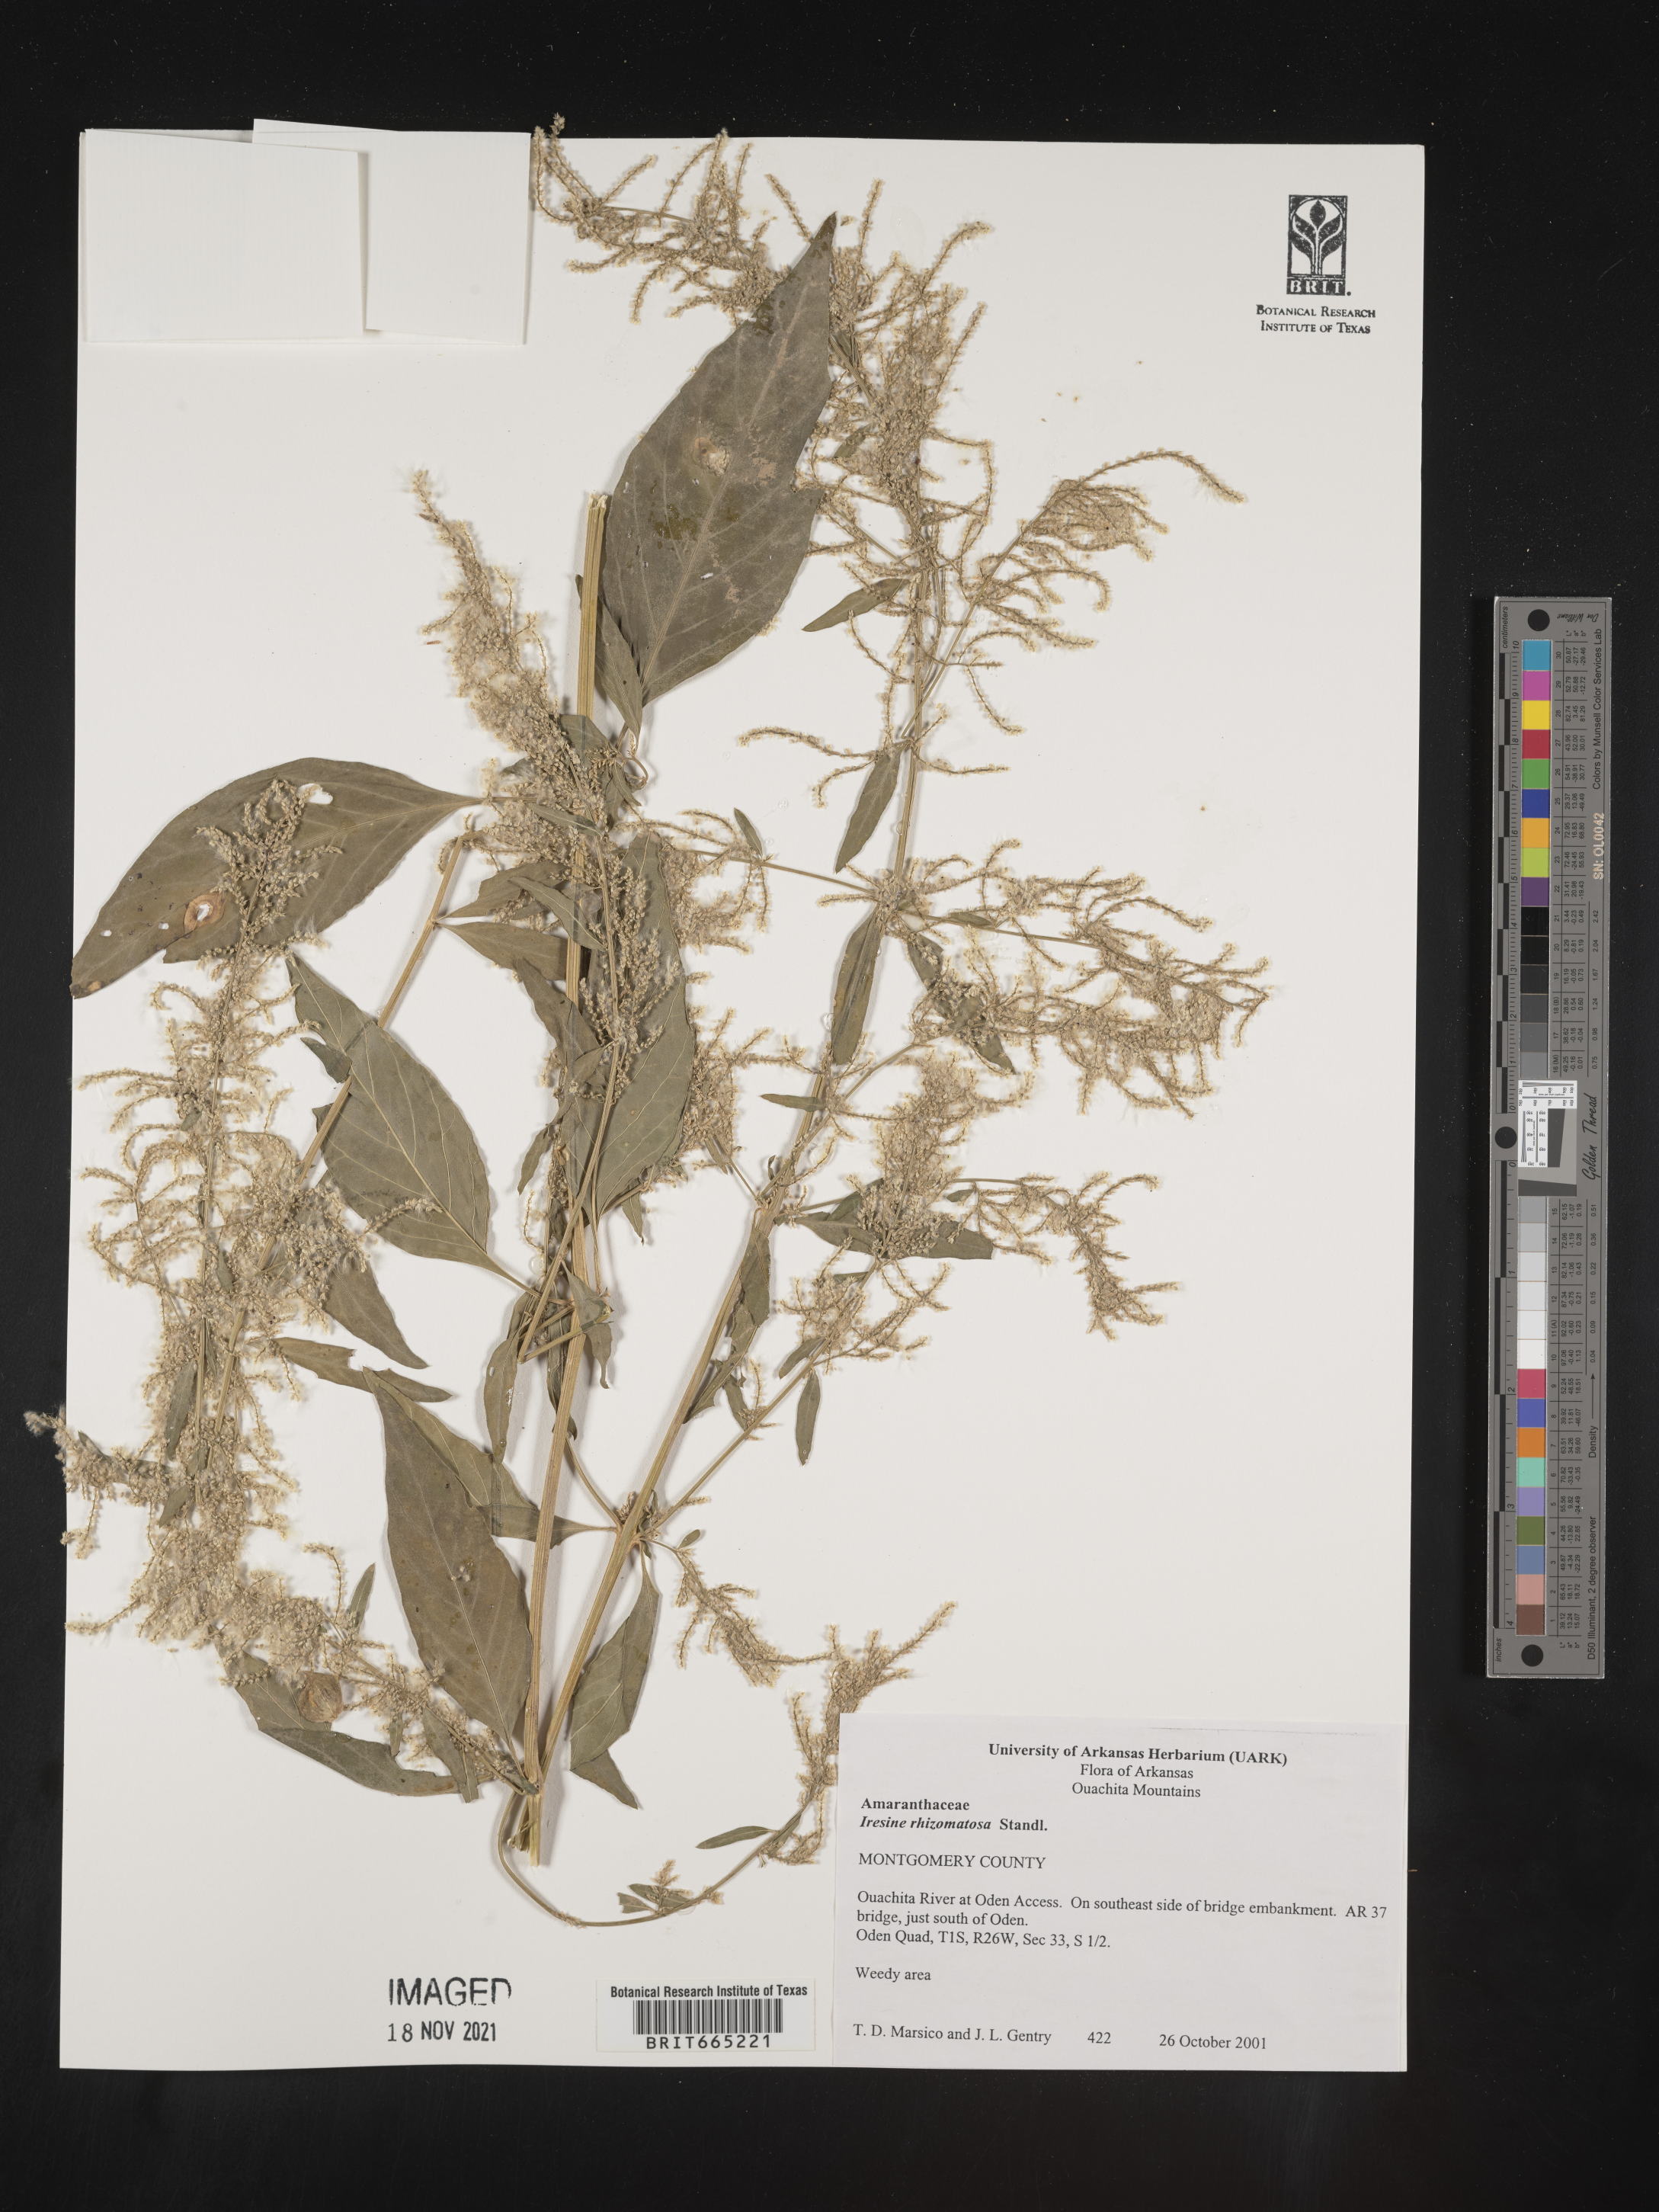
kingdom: Plantae
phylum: Tracheophyta
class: Magnoliopsida
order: Caryophyllales
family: Amaranthaceae
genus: Iresine
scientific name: Iresine rhizomatosa
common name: Juda's-bush
